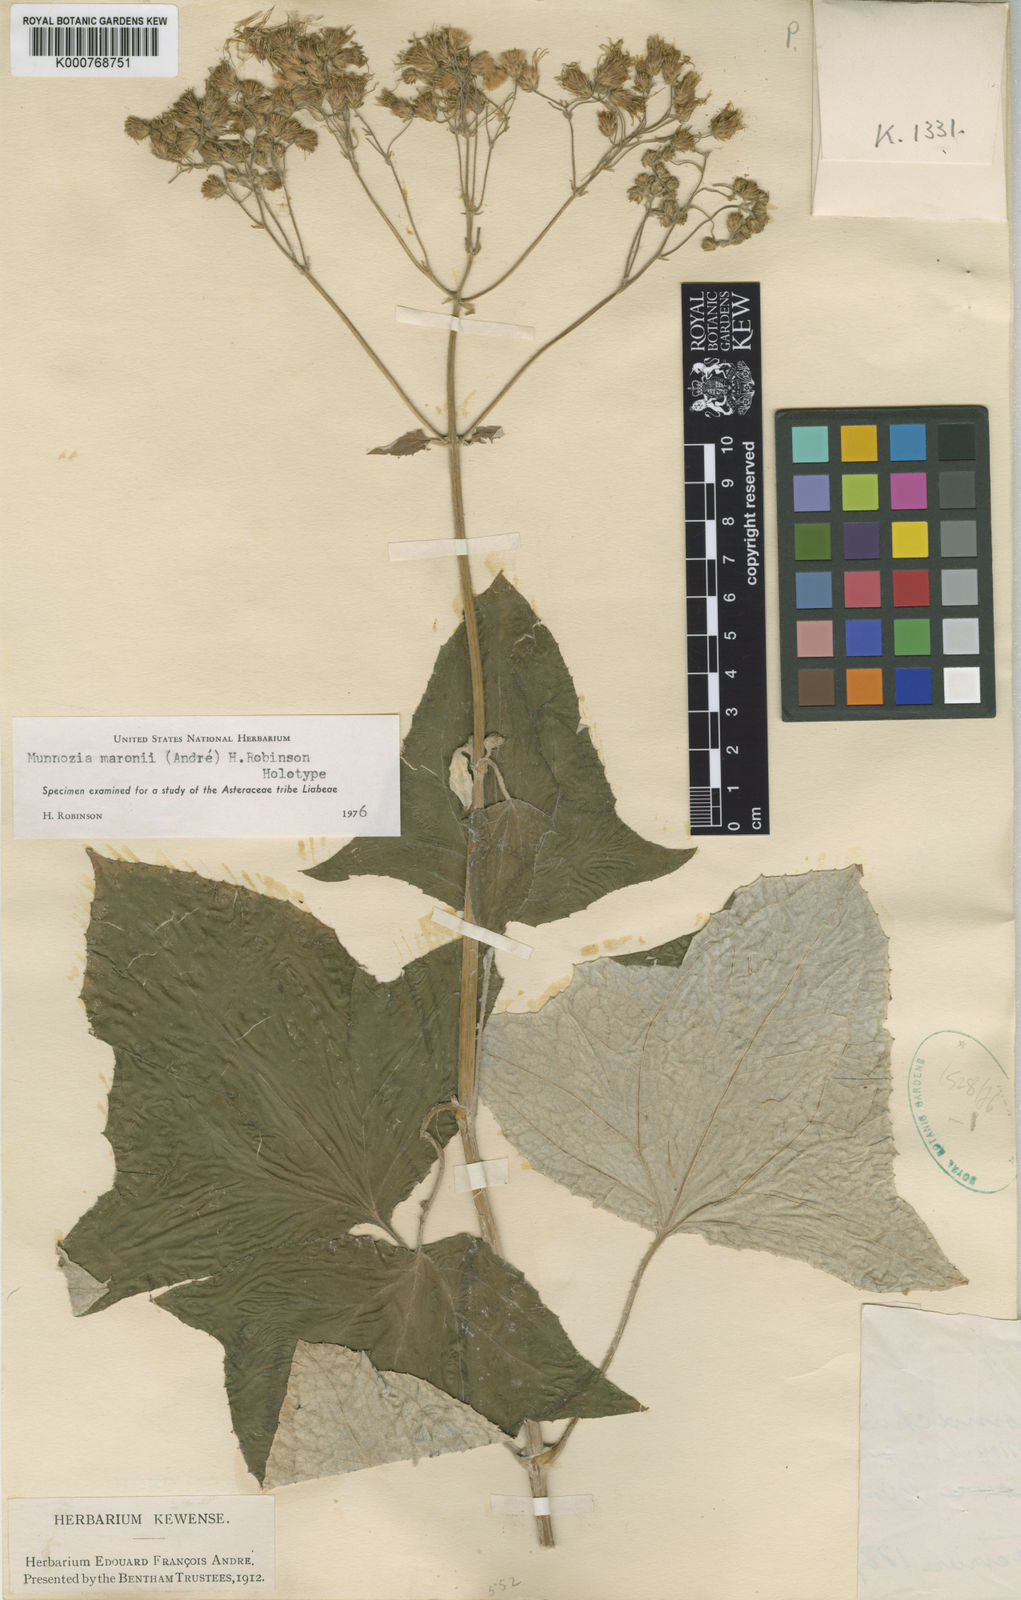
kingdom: Plantae
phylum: Tracheophyta
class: Magnoliopsida
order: Asterales
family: Asteraceae
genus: Munnozia
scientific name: Munnozia
